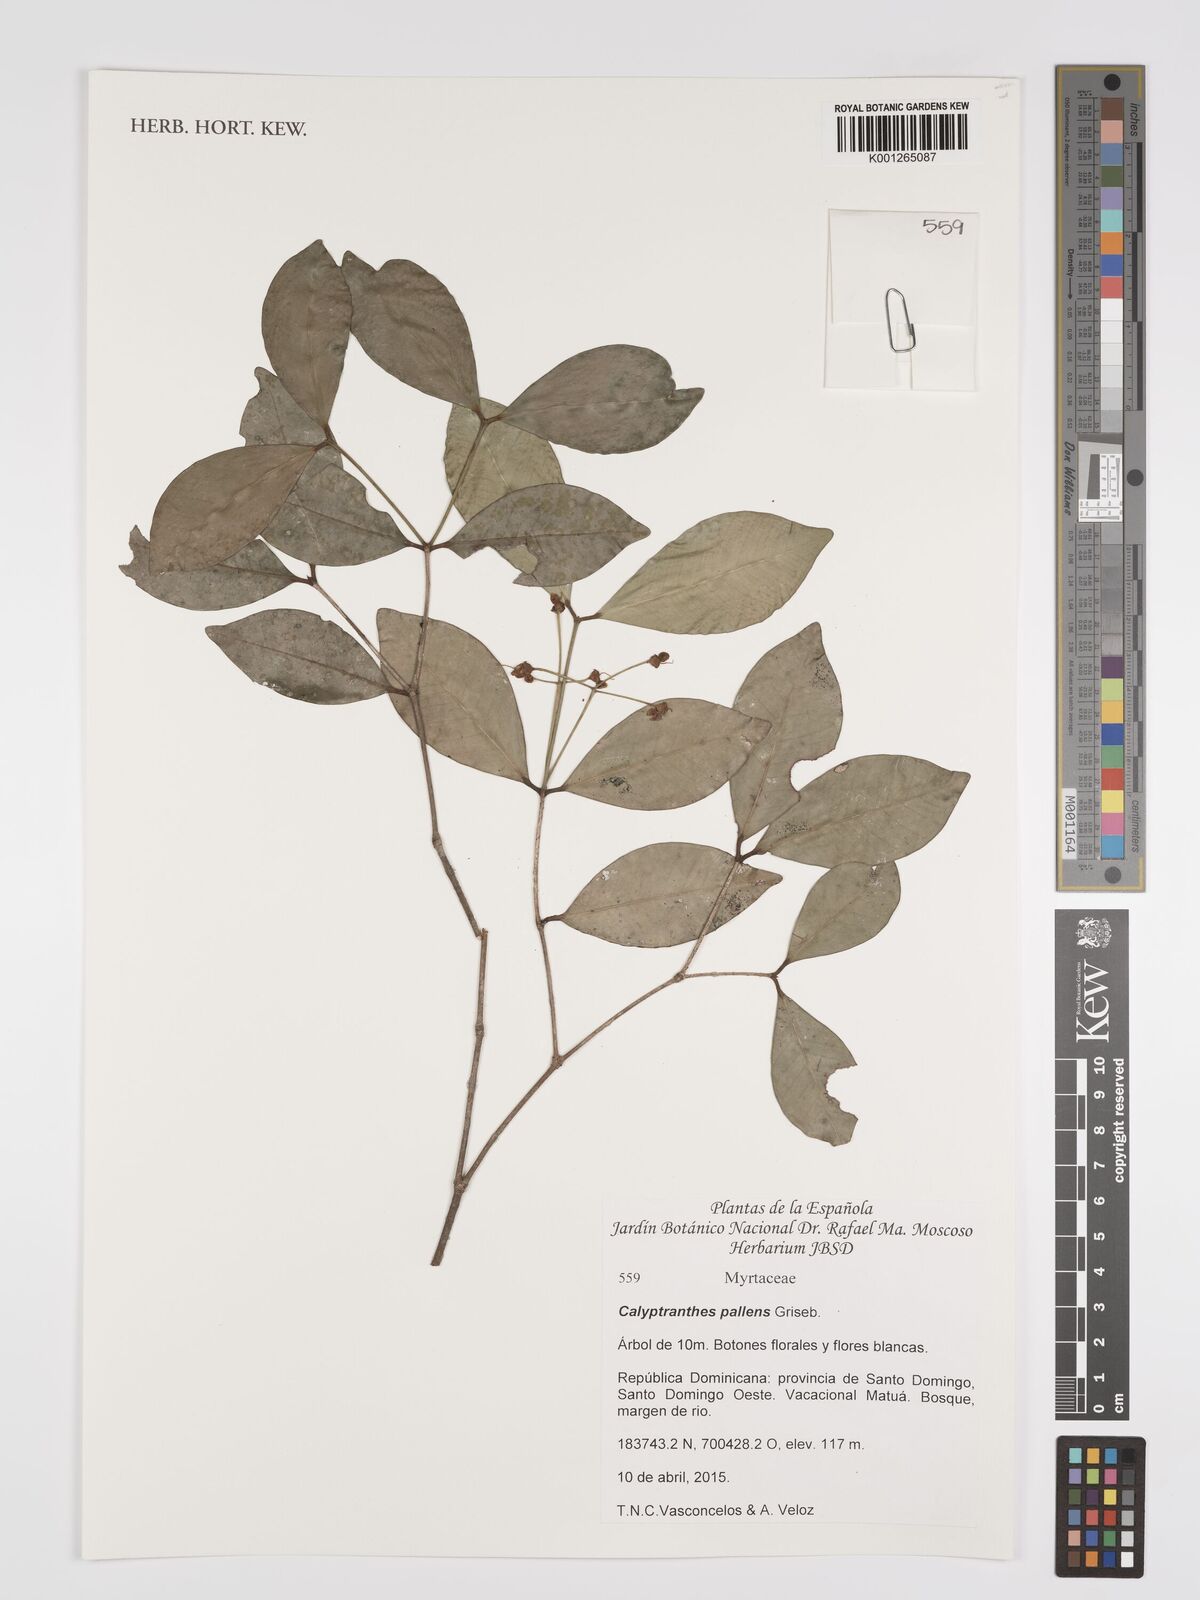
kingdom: Plantae
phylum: Tracheophyta
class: Magnoliopsida
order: Myrtales
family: Myrtaceae
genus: Myrcia
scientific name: Myrcia neopallens
